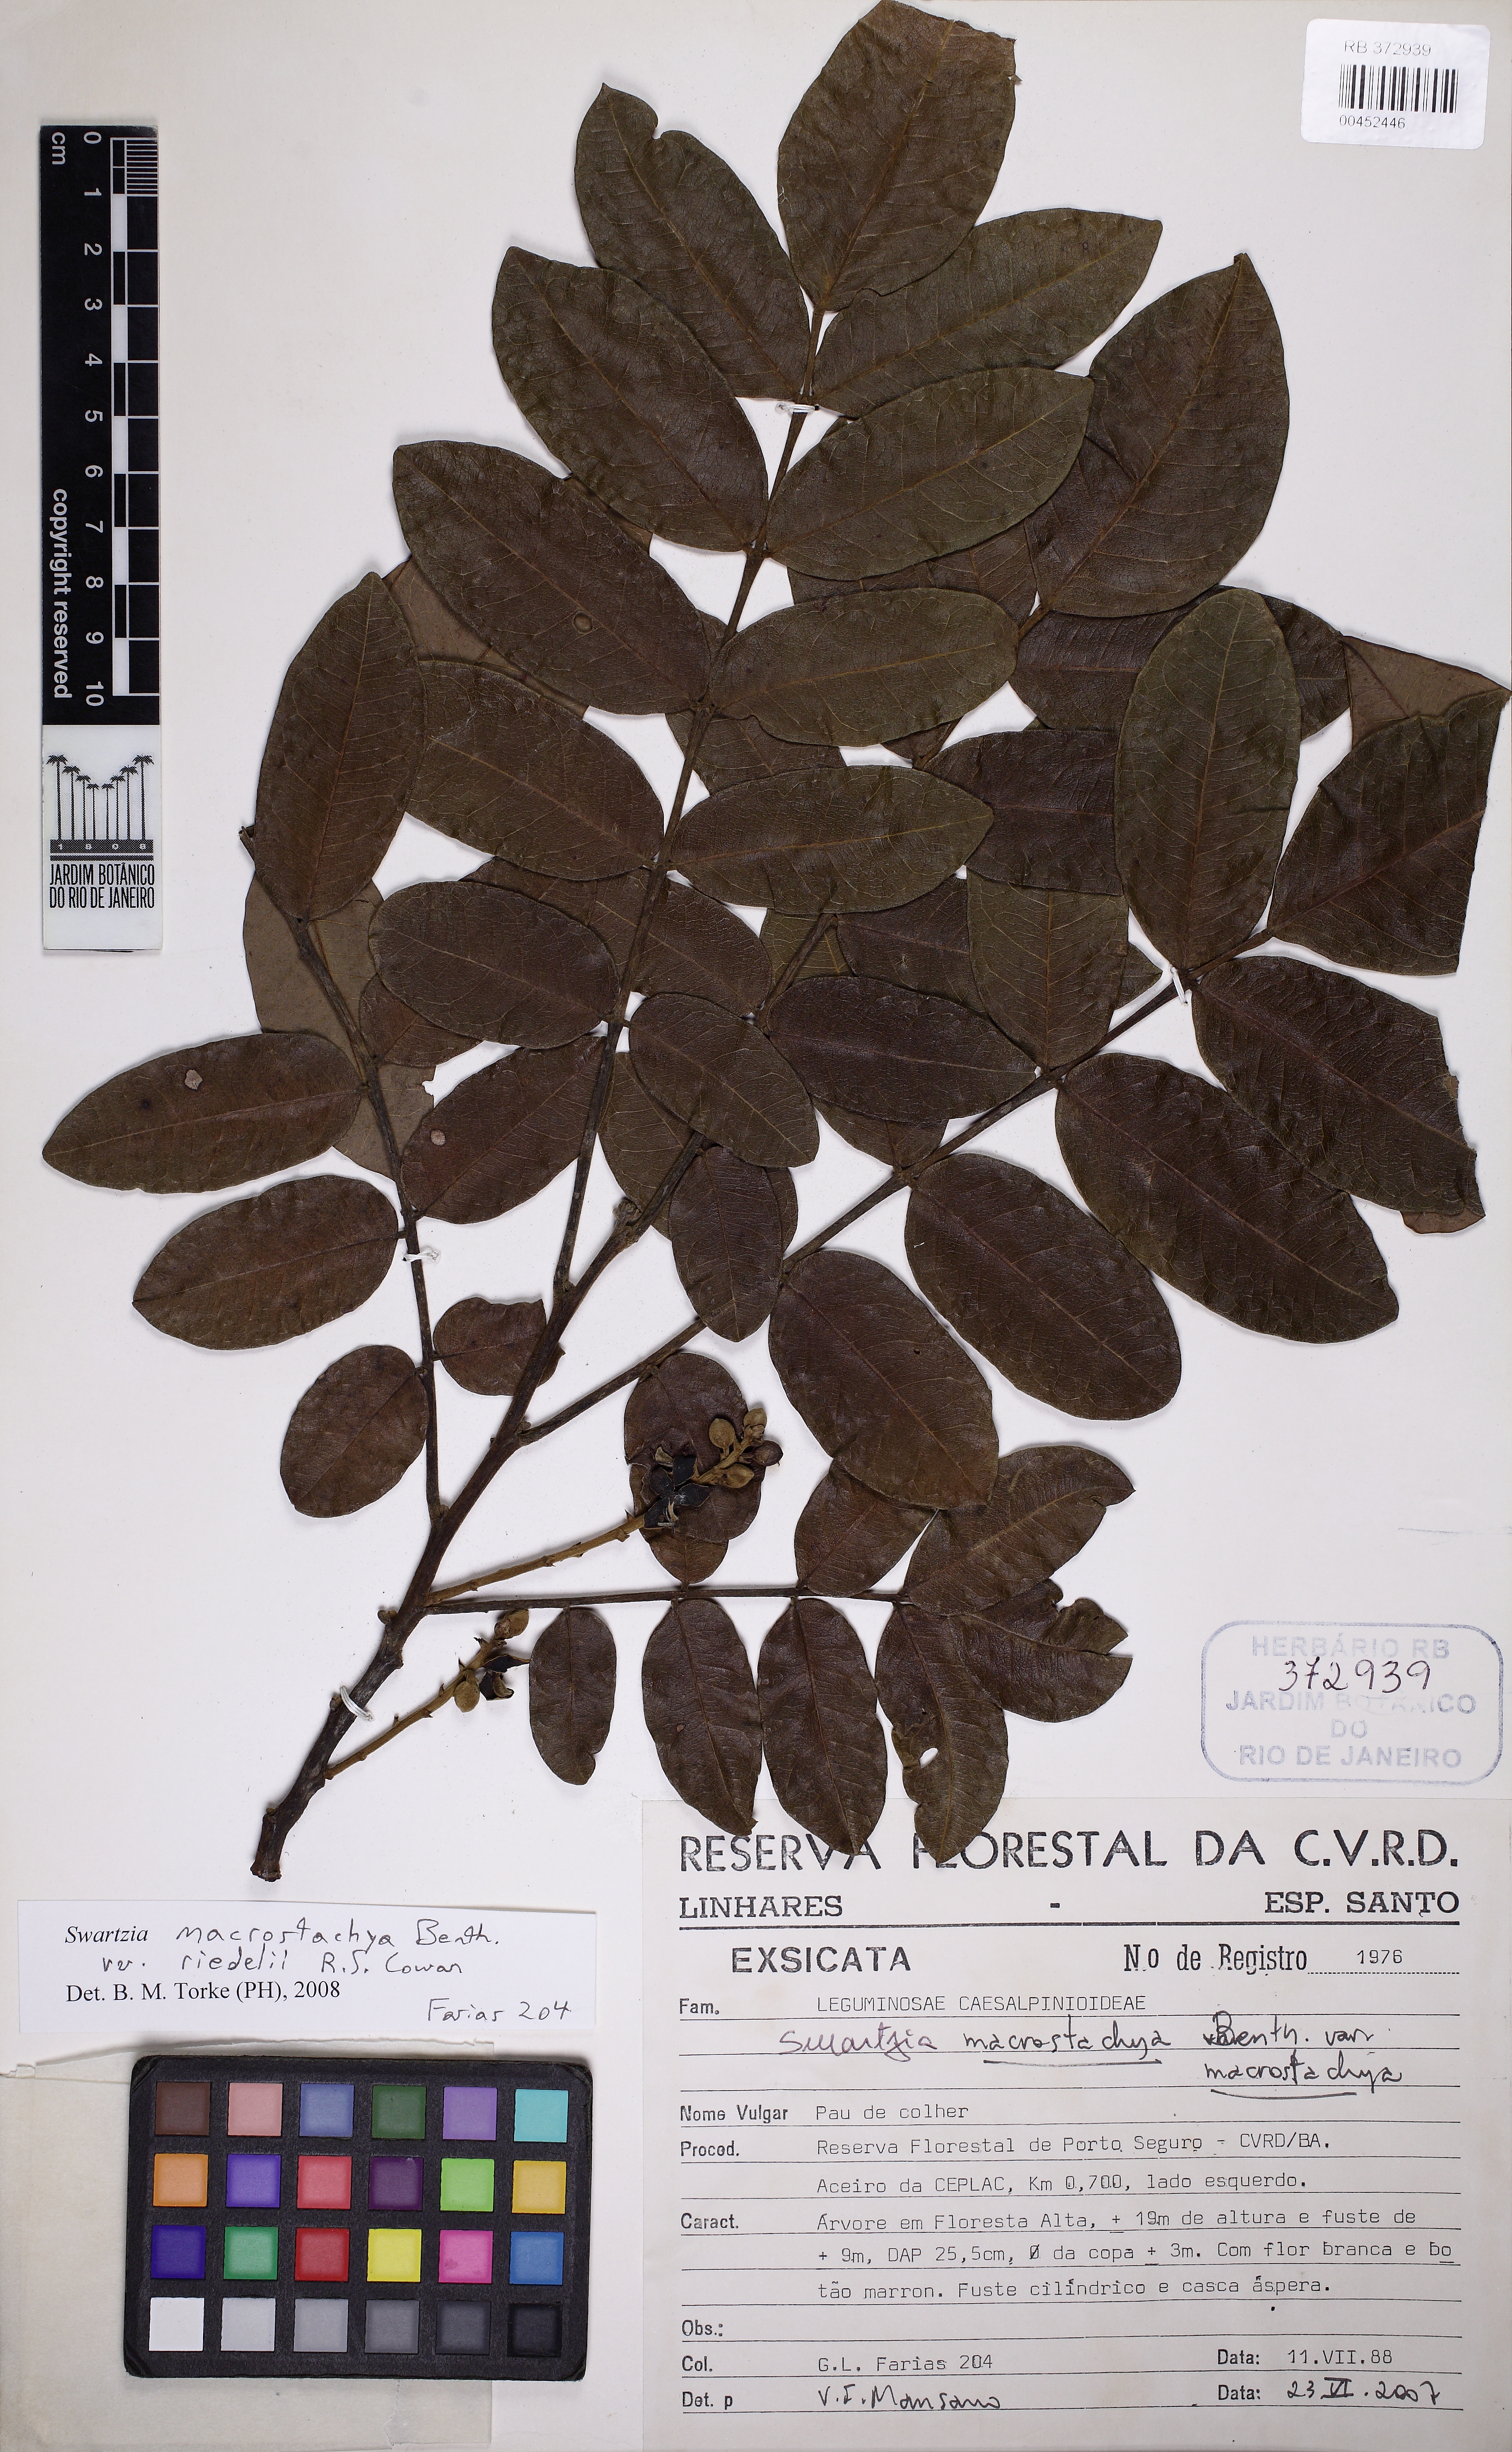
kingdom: Plantae
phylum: Tracheophyta
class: Magnoliopsida
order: Fabales
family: Fabaceae
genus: Swartzia
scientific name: Swartzia macrostachya
